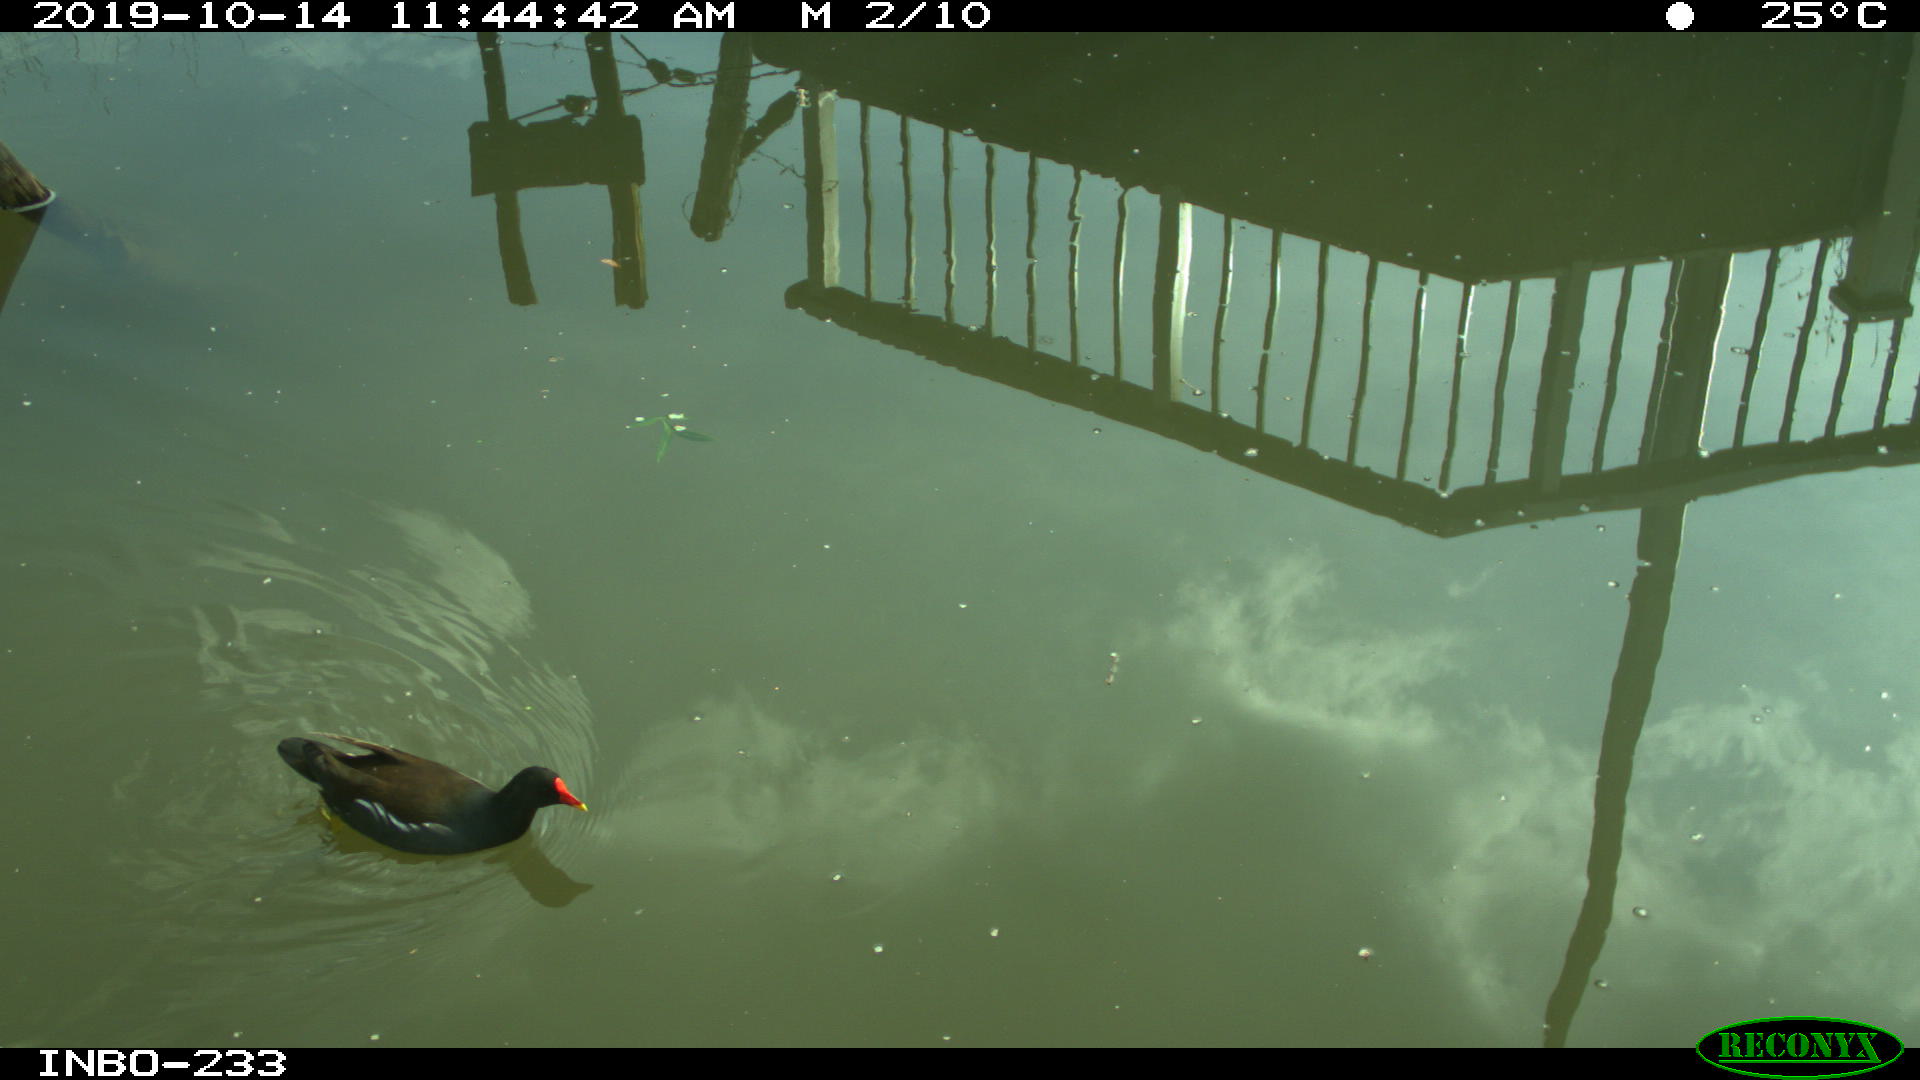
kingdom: Animalia
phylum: Chordata
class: Aves
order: Gruiformes
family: Rallidae
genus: Gallinula
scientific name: Gallinula chloropus
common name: Common moorhen
